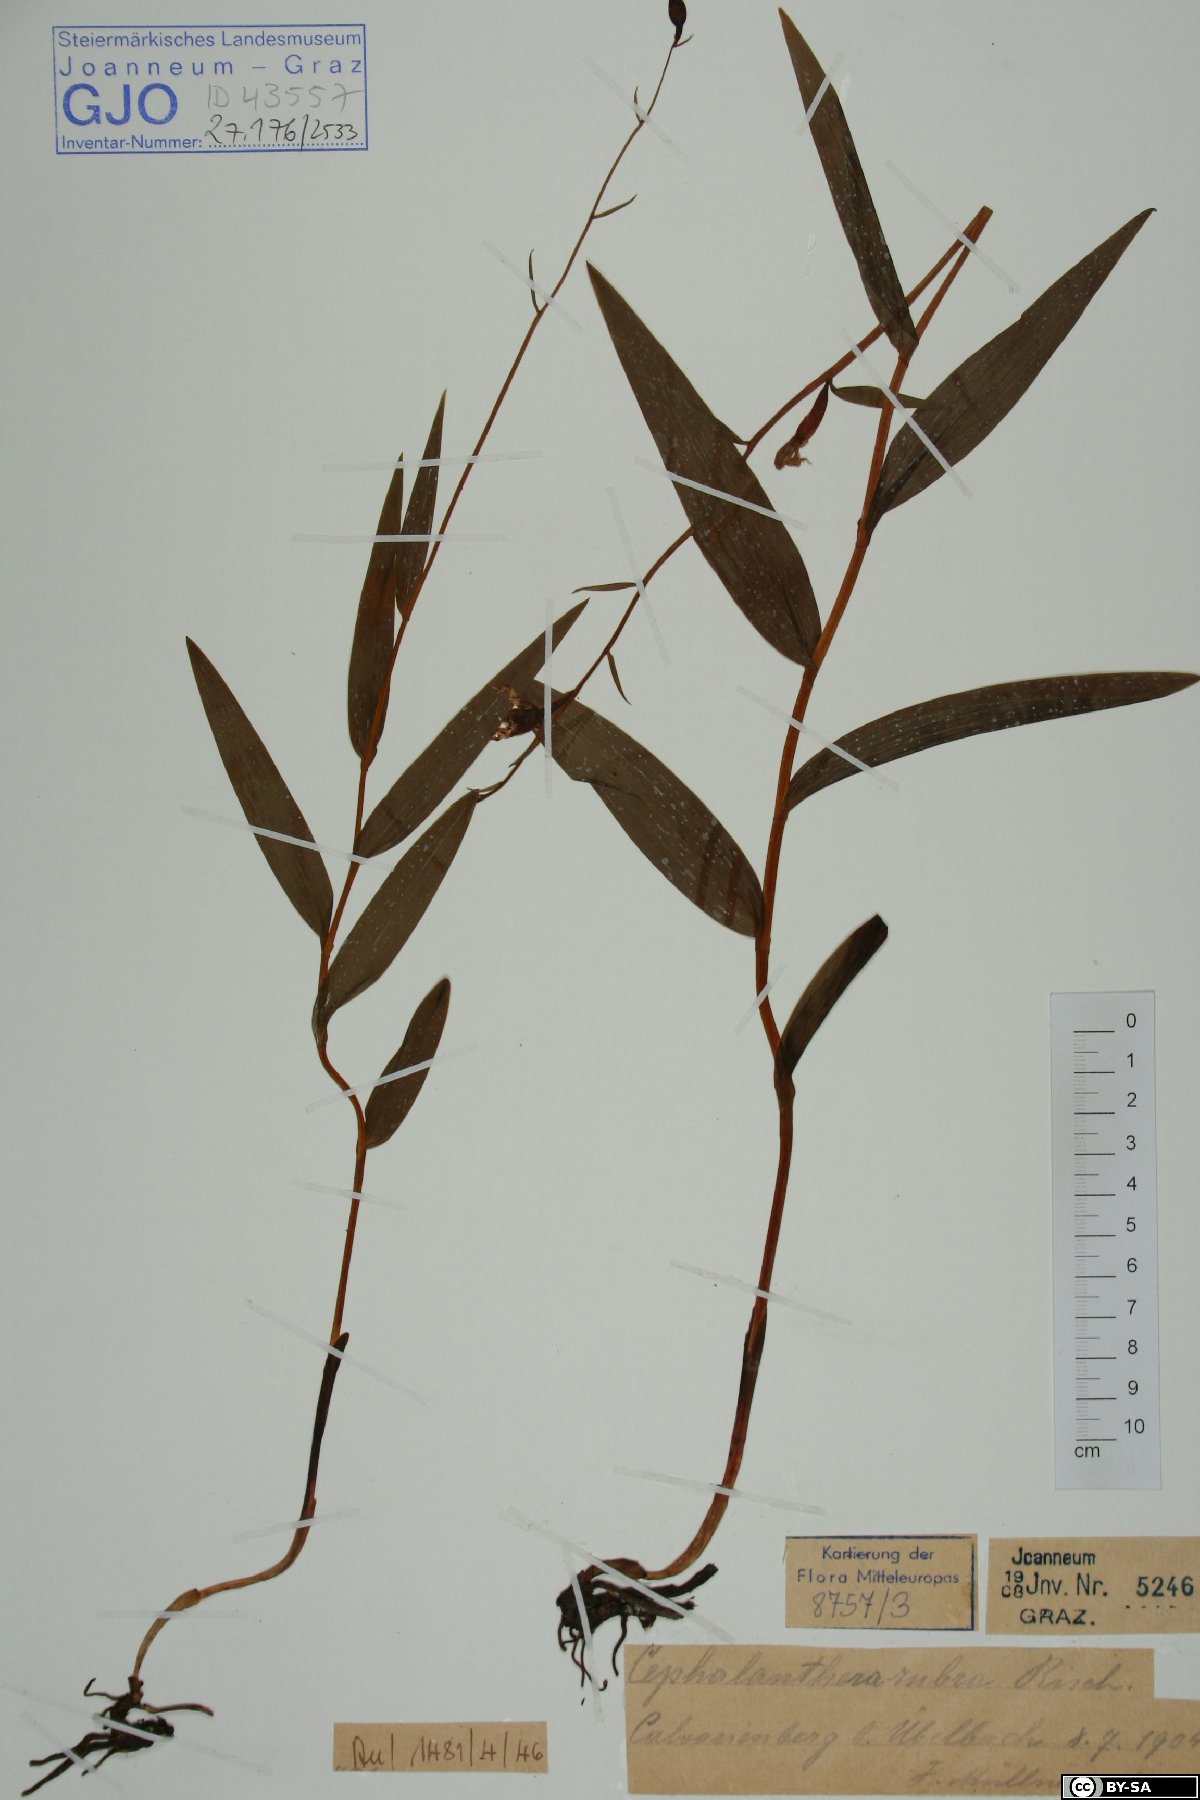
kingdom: Plantae
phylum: Tracheophyta
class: Liliopsida
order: Asparagales
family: Orchidaceae
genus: Cephalanthera
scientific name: Cephalanthera rubra
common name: Red helleborine
